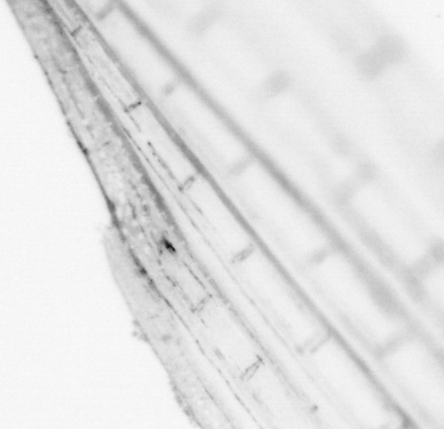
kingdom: Animalia
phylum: Chordata
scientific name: Chordata
